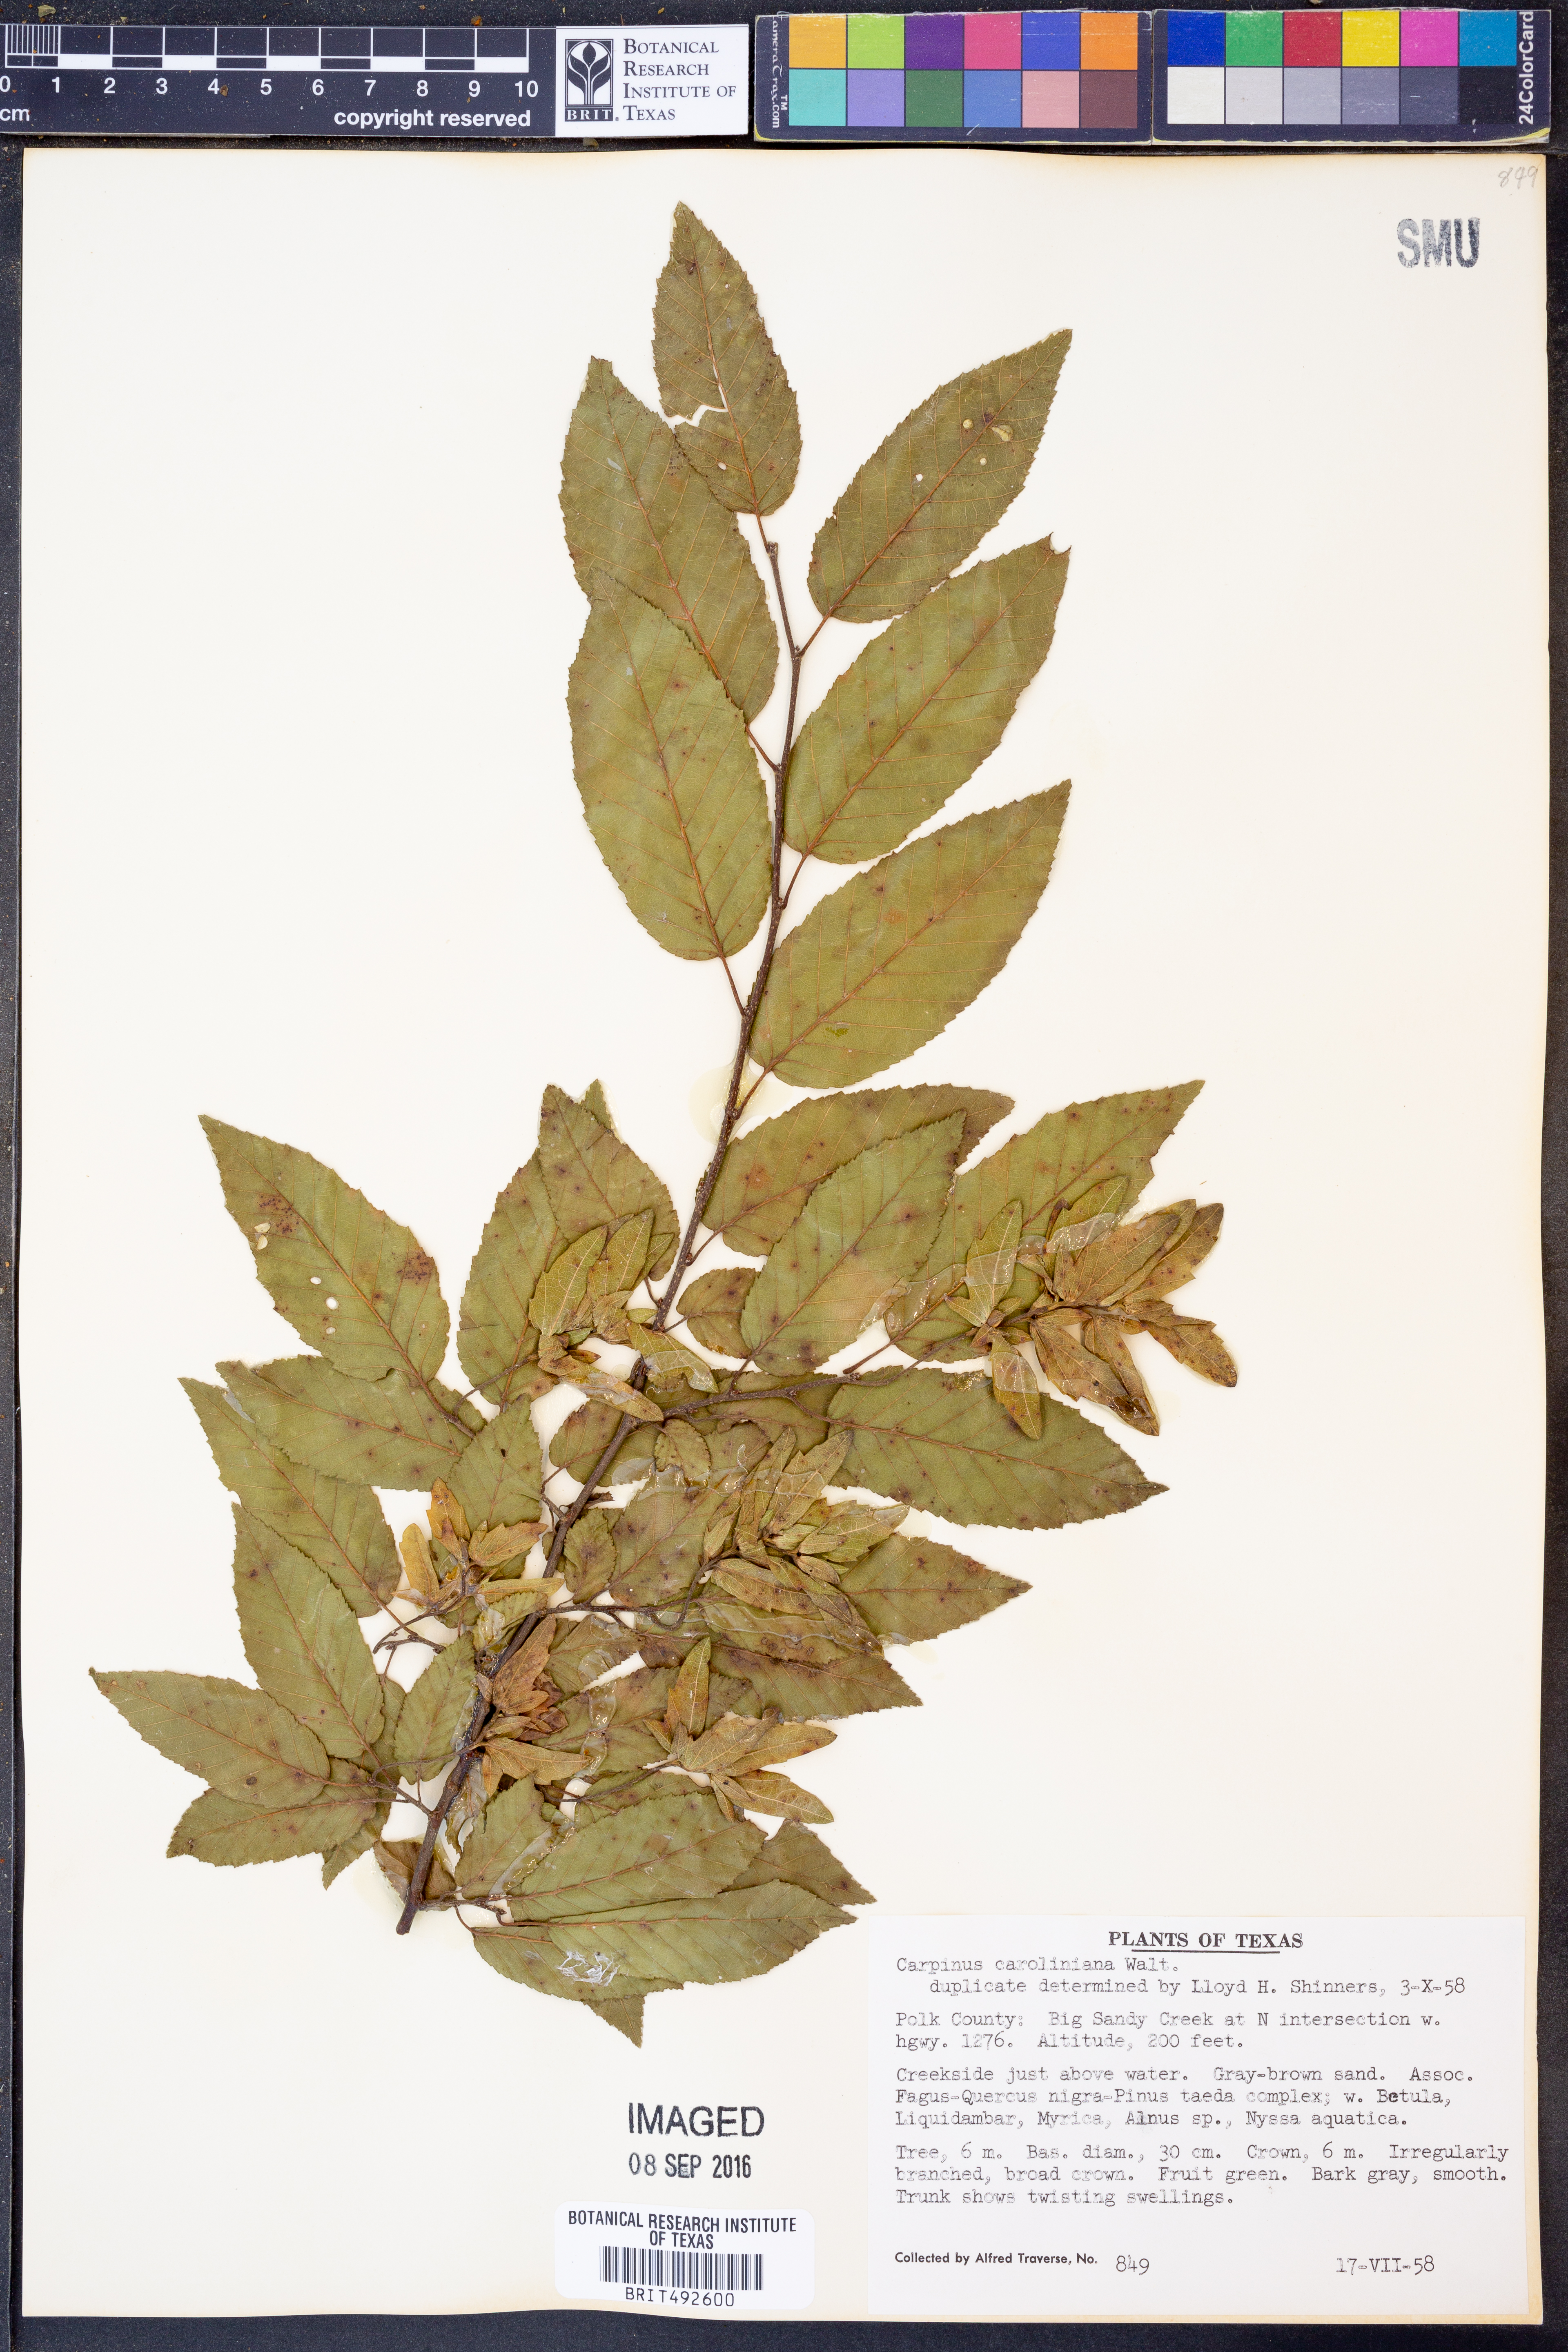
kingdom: Plantae
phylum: Tracheophyta
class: Magnoliopsida
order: Fagales
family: Betulaceae
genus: Carpinus
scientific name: Carpinus caroliniana
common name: American hornbeam
